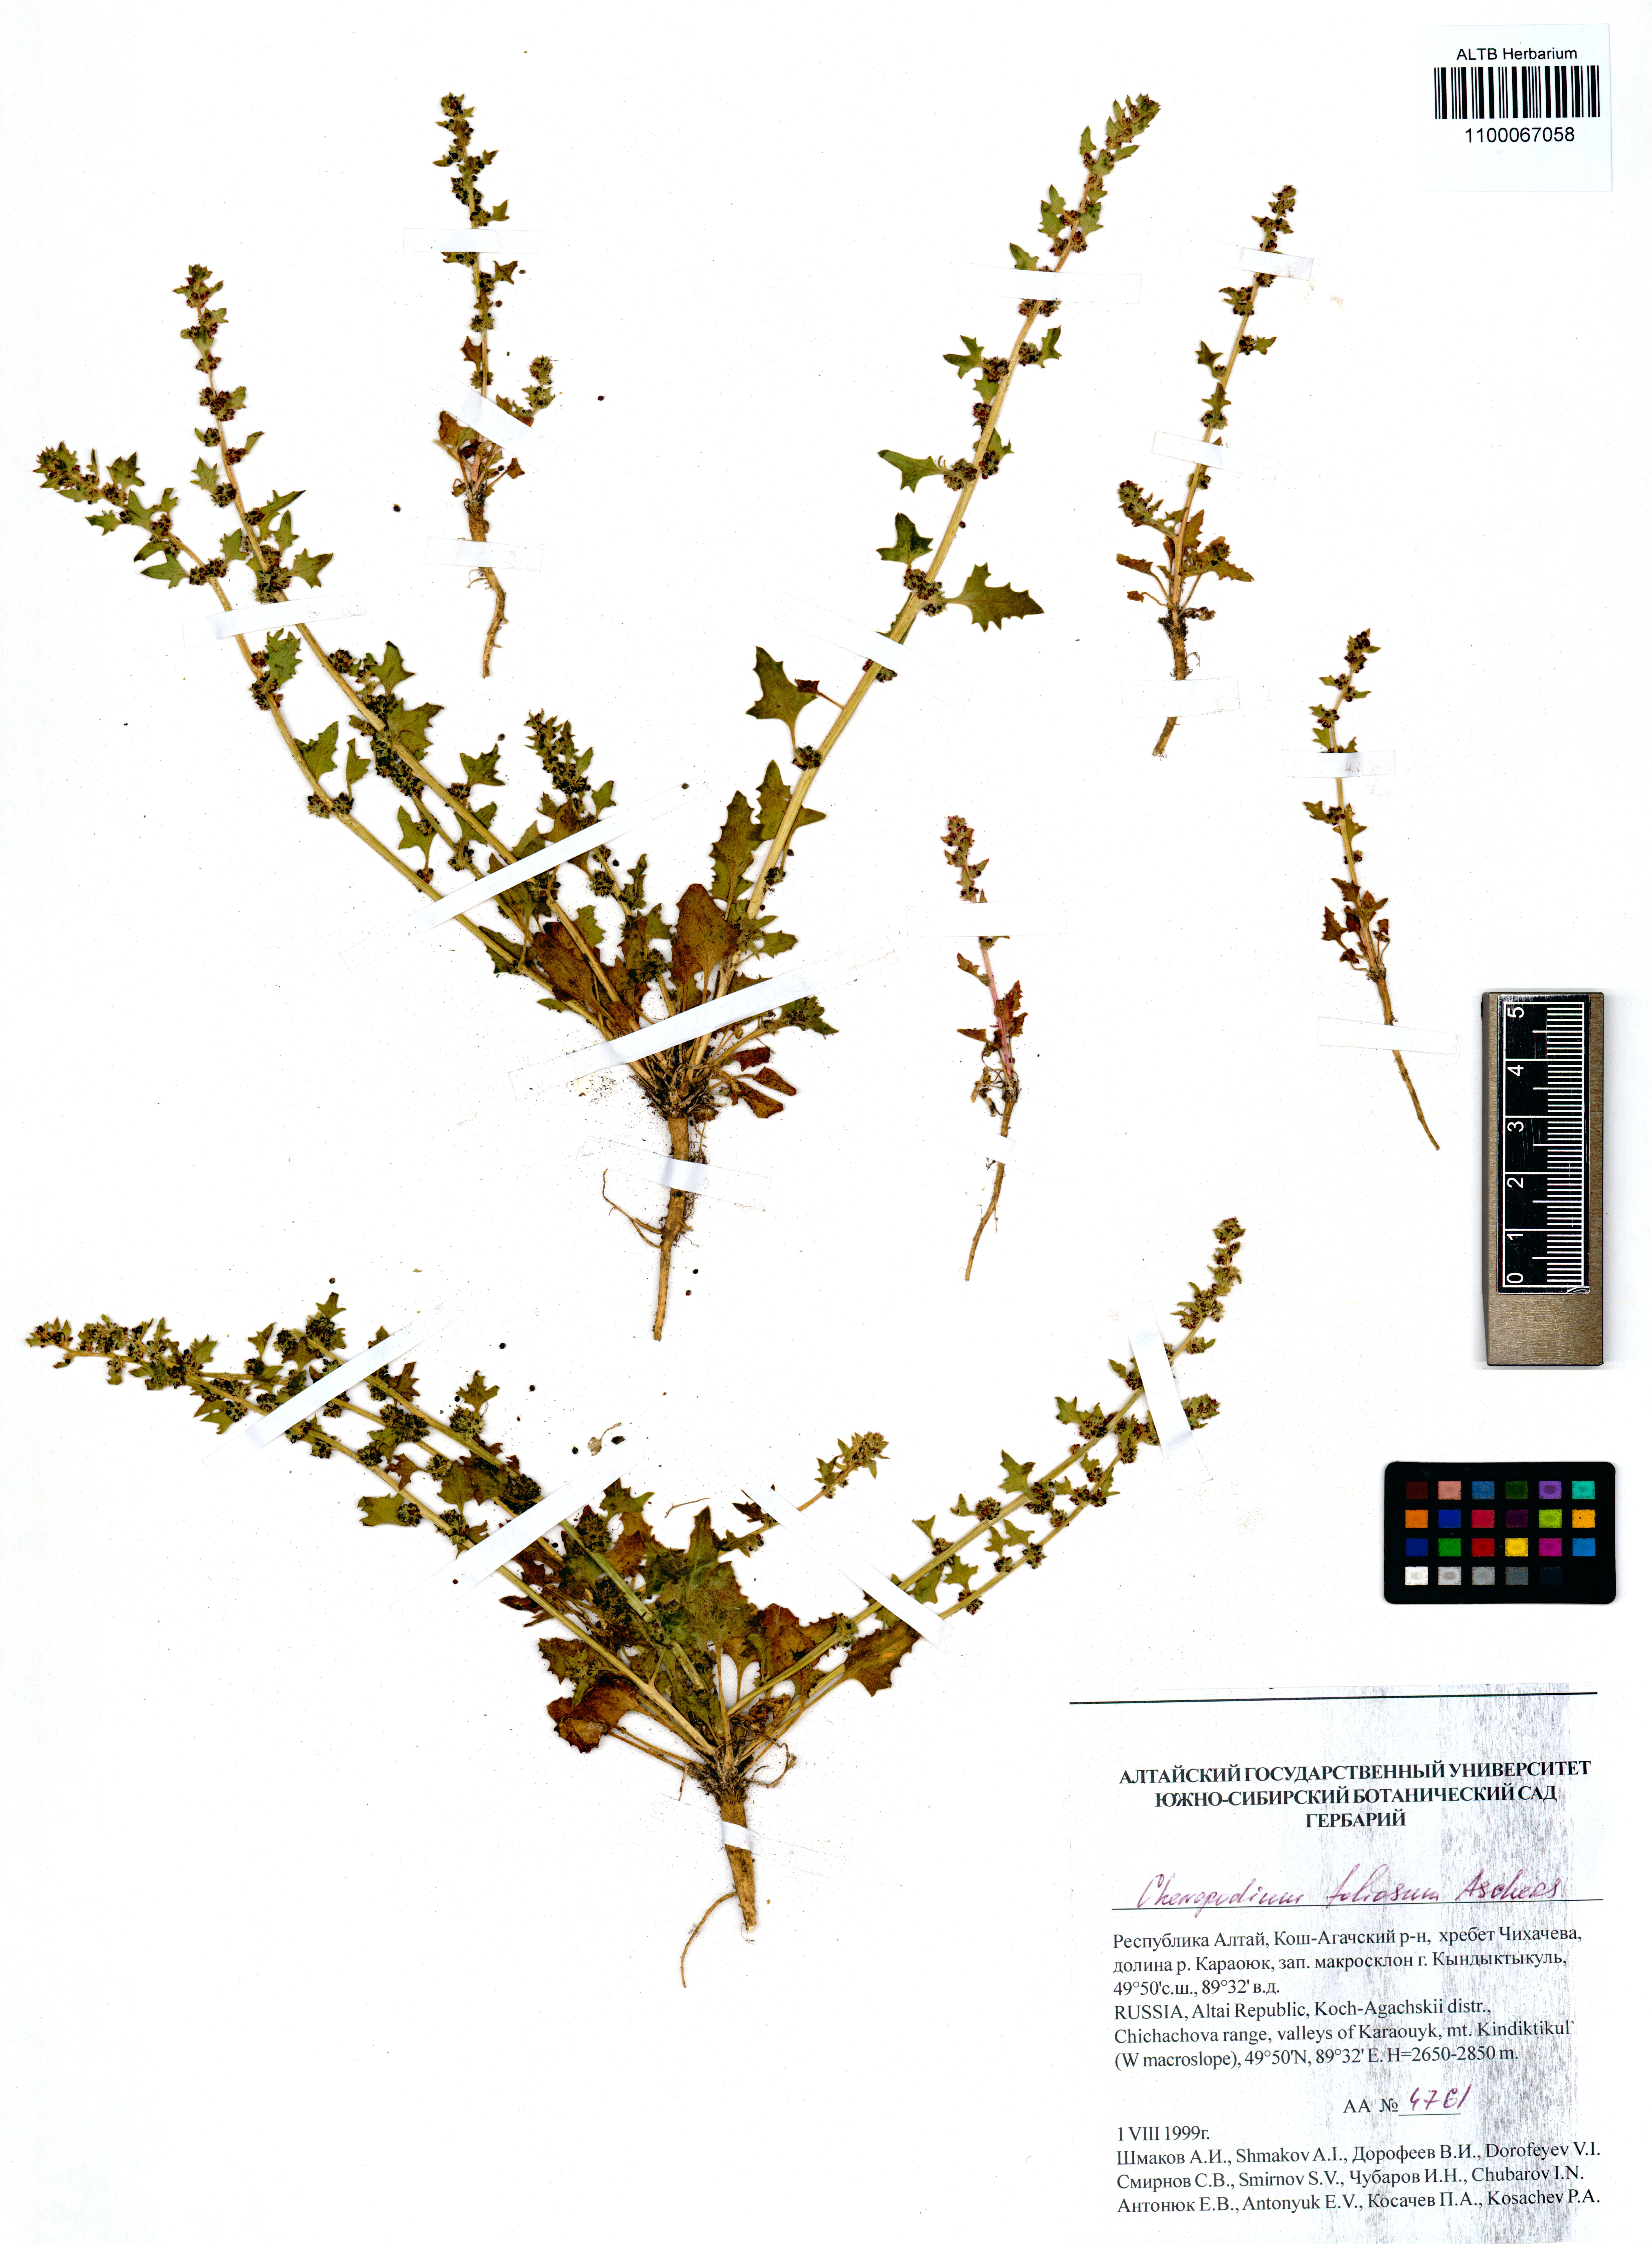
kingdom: Plantae
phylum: Tracheophyta
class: Magnoliopsida
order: Caryophyllales
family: Amaranthaceae
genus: Blitum
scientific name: Blitum virgatum
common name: Strawberry goosefoot
